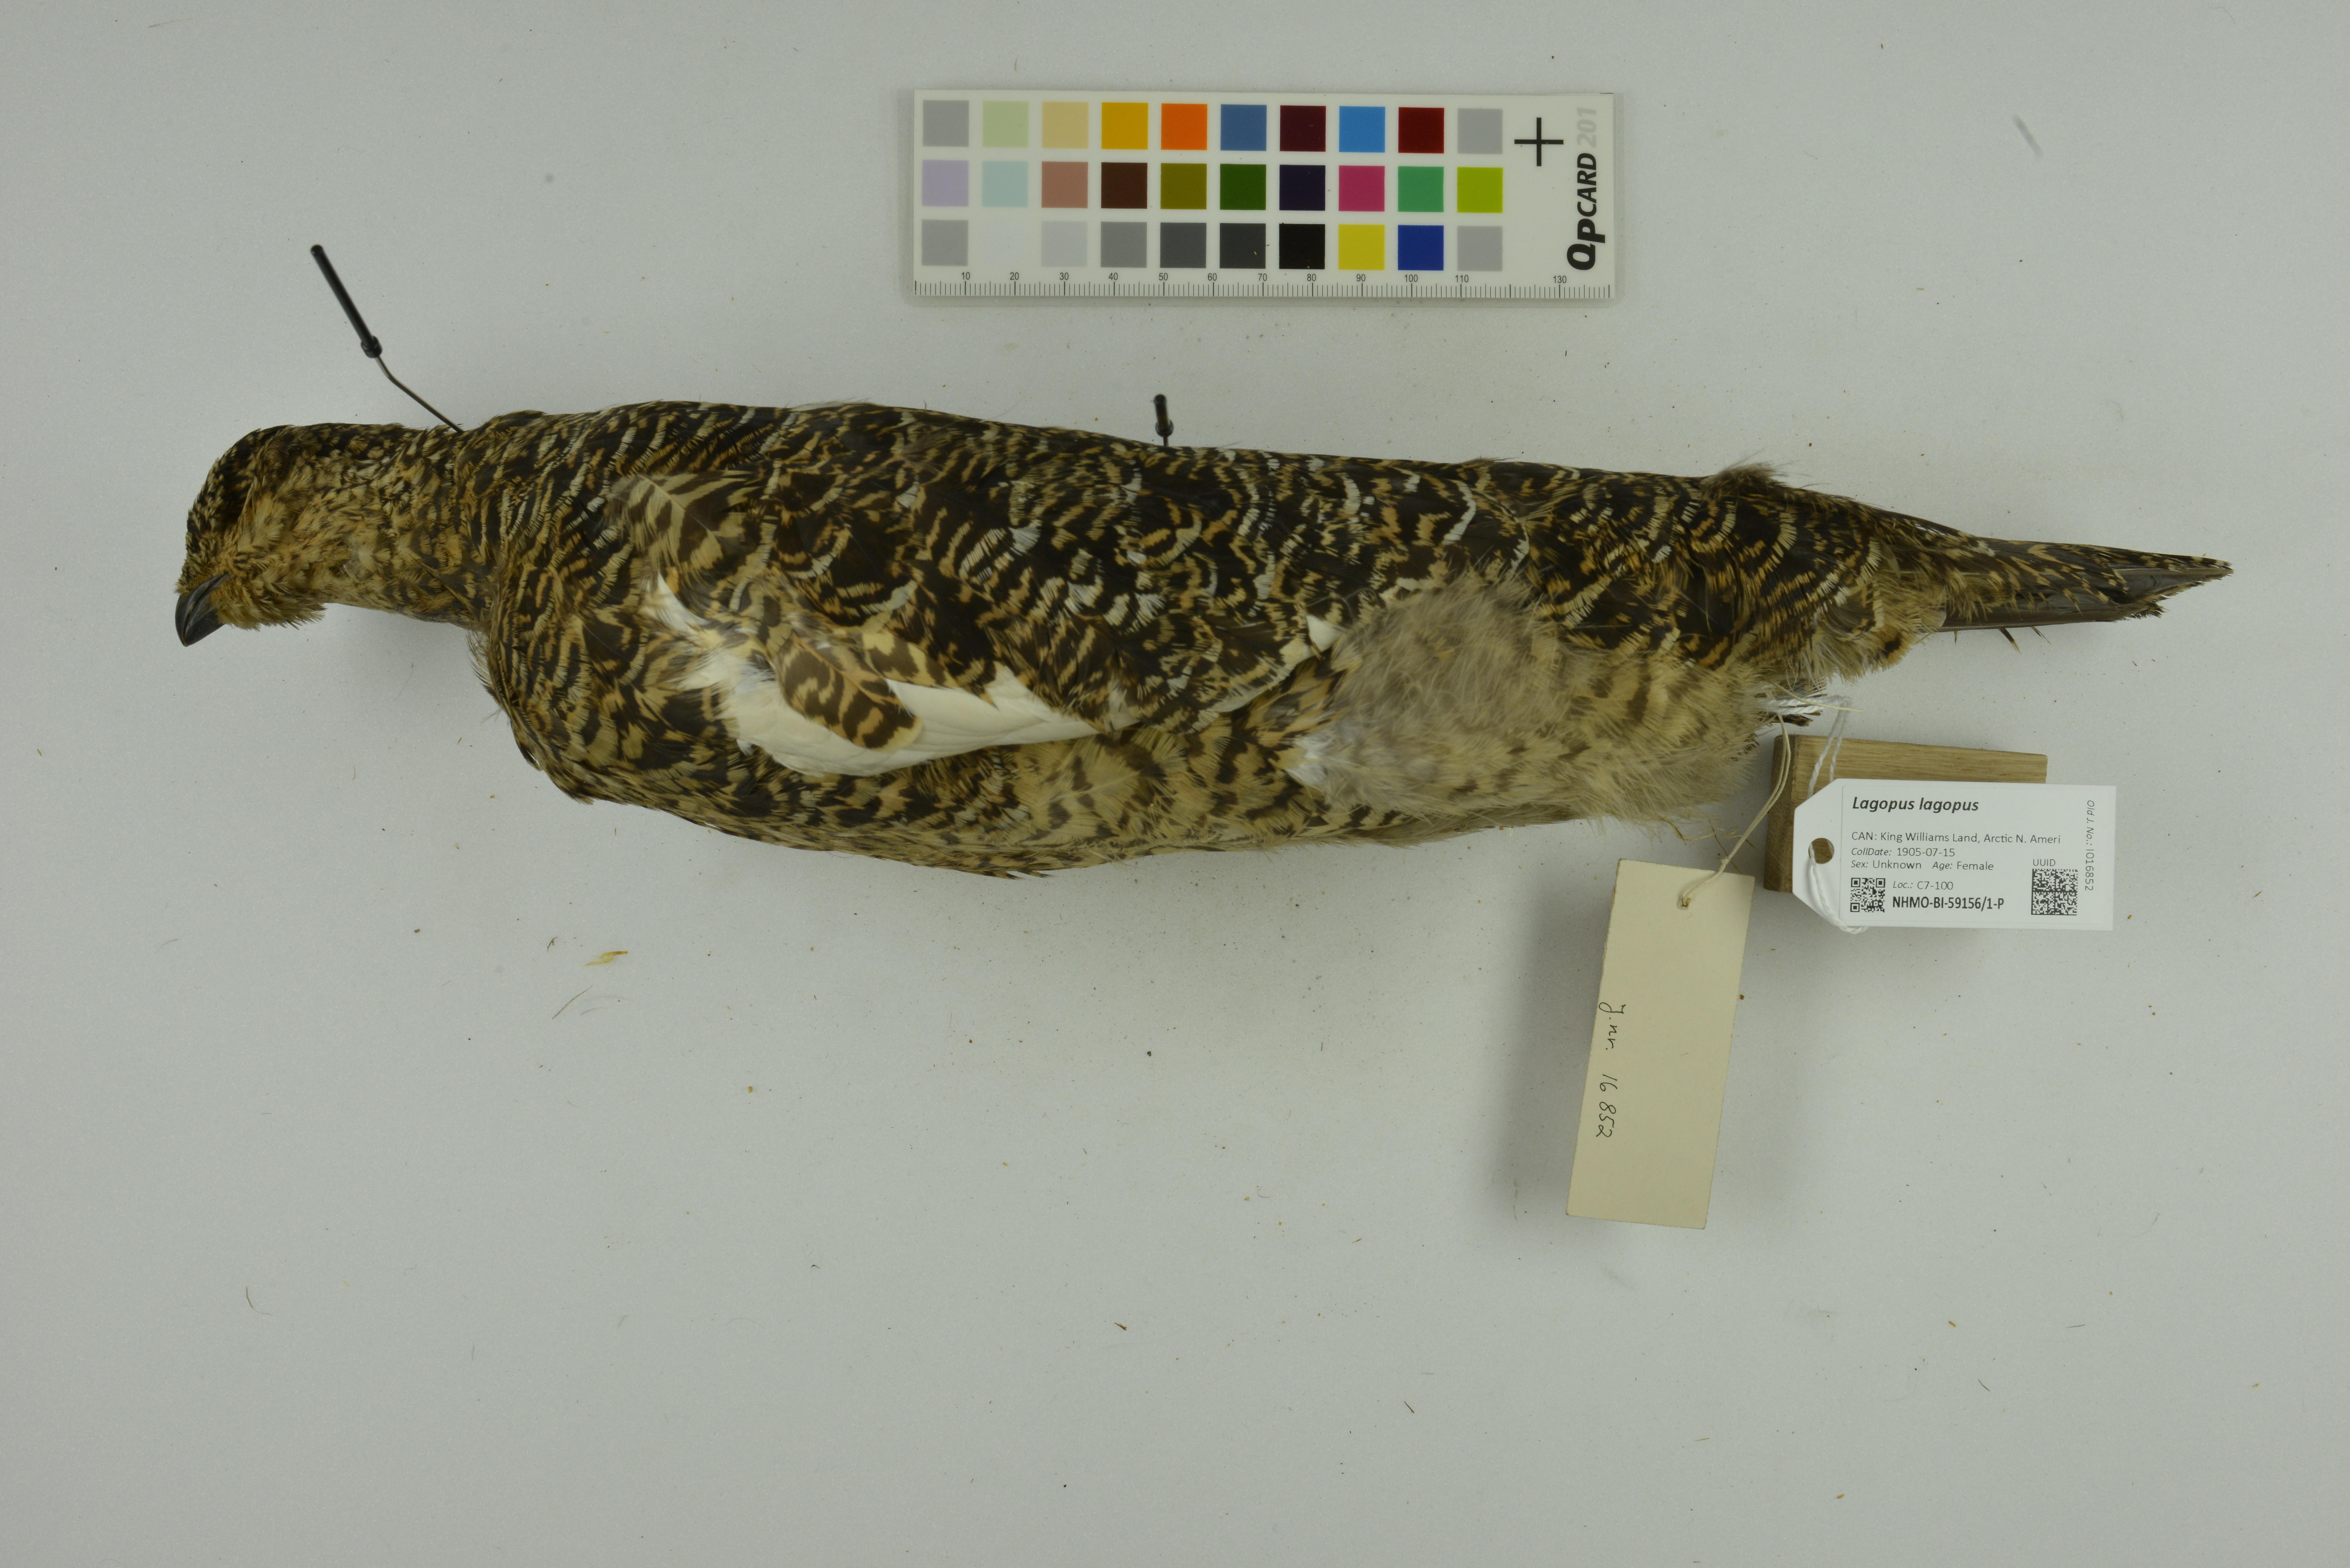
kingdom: Animalia
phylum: Chordata
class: Aves
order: Galliformes
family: Phasianidae
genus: Lagopus
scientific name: Lagopus lagopus
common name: Willow ptarmigan
